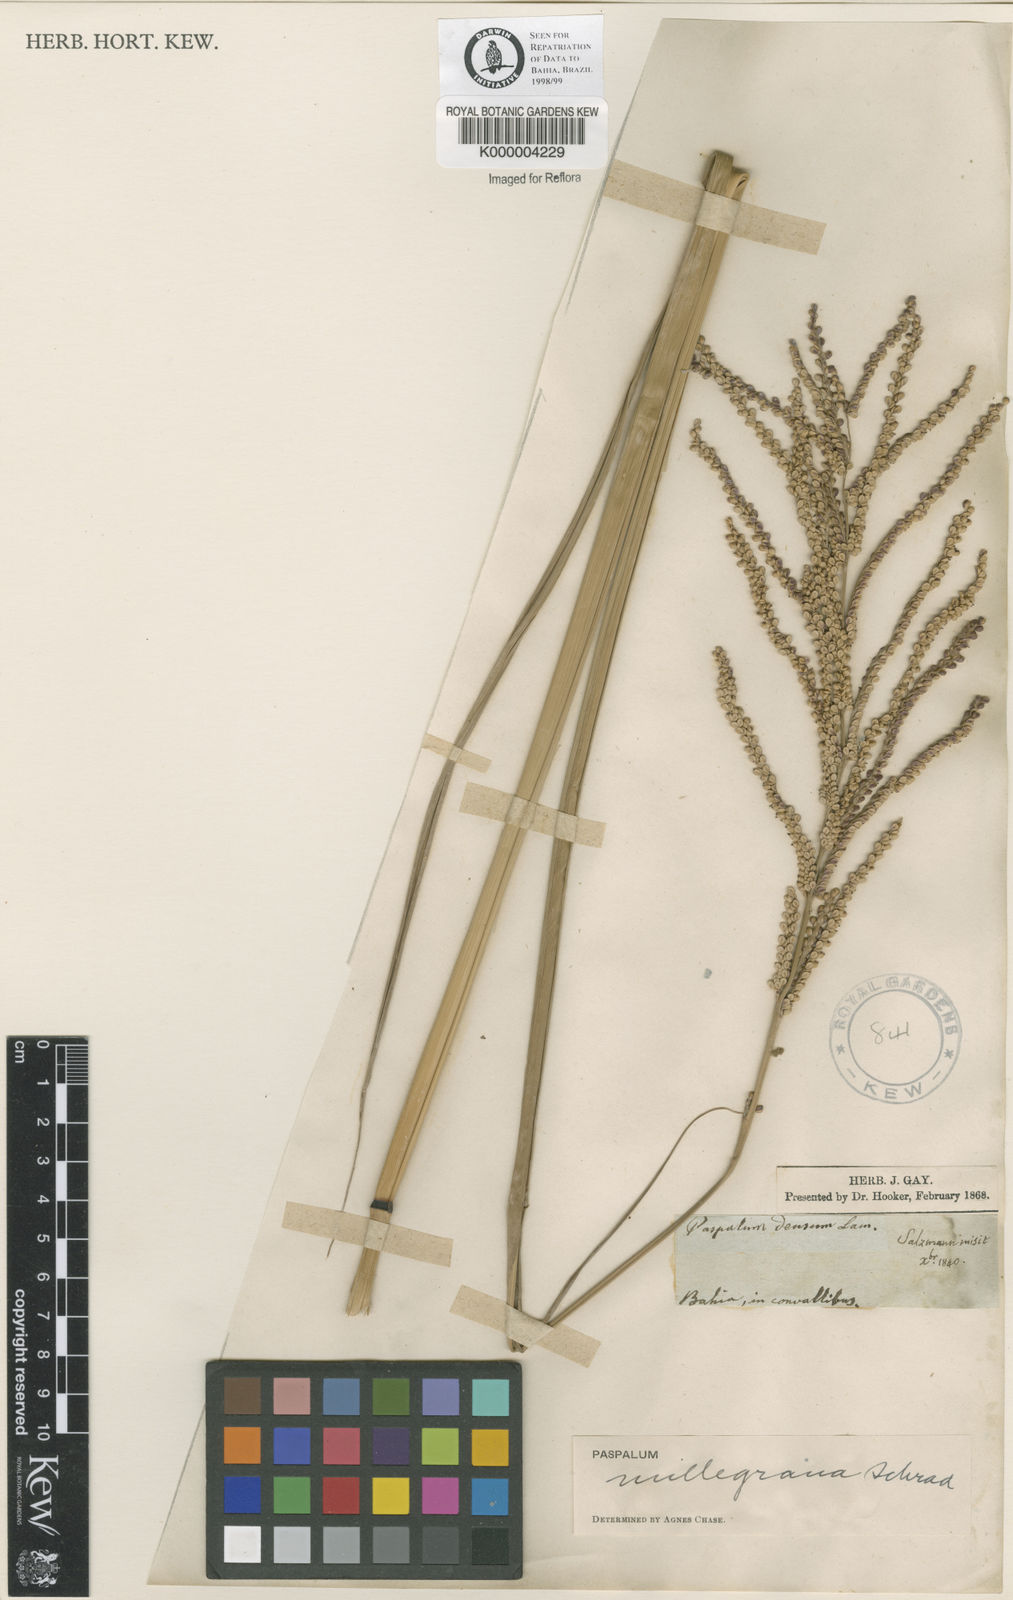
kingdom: Plantae
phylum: Tracheophyta
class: Liliopsida
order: Poales
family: Poaceae
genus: Paspalum
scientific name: Paspalum millegranum
